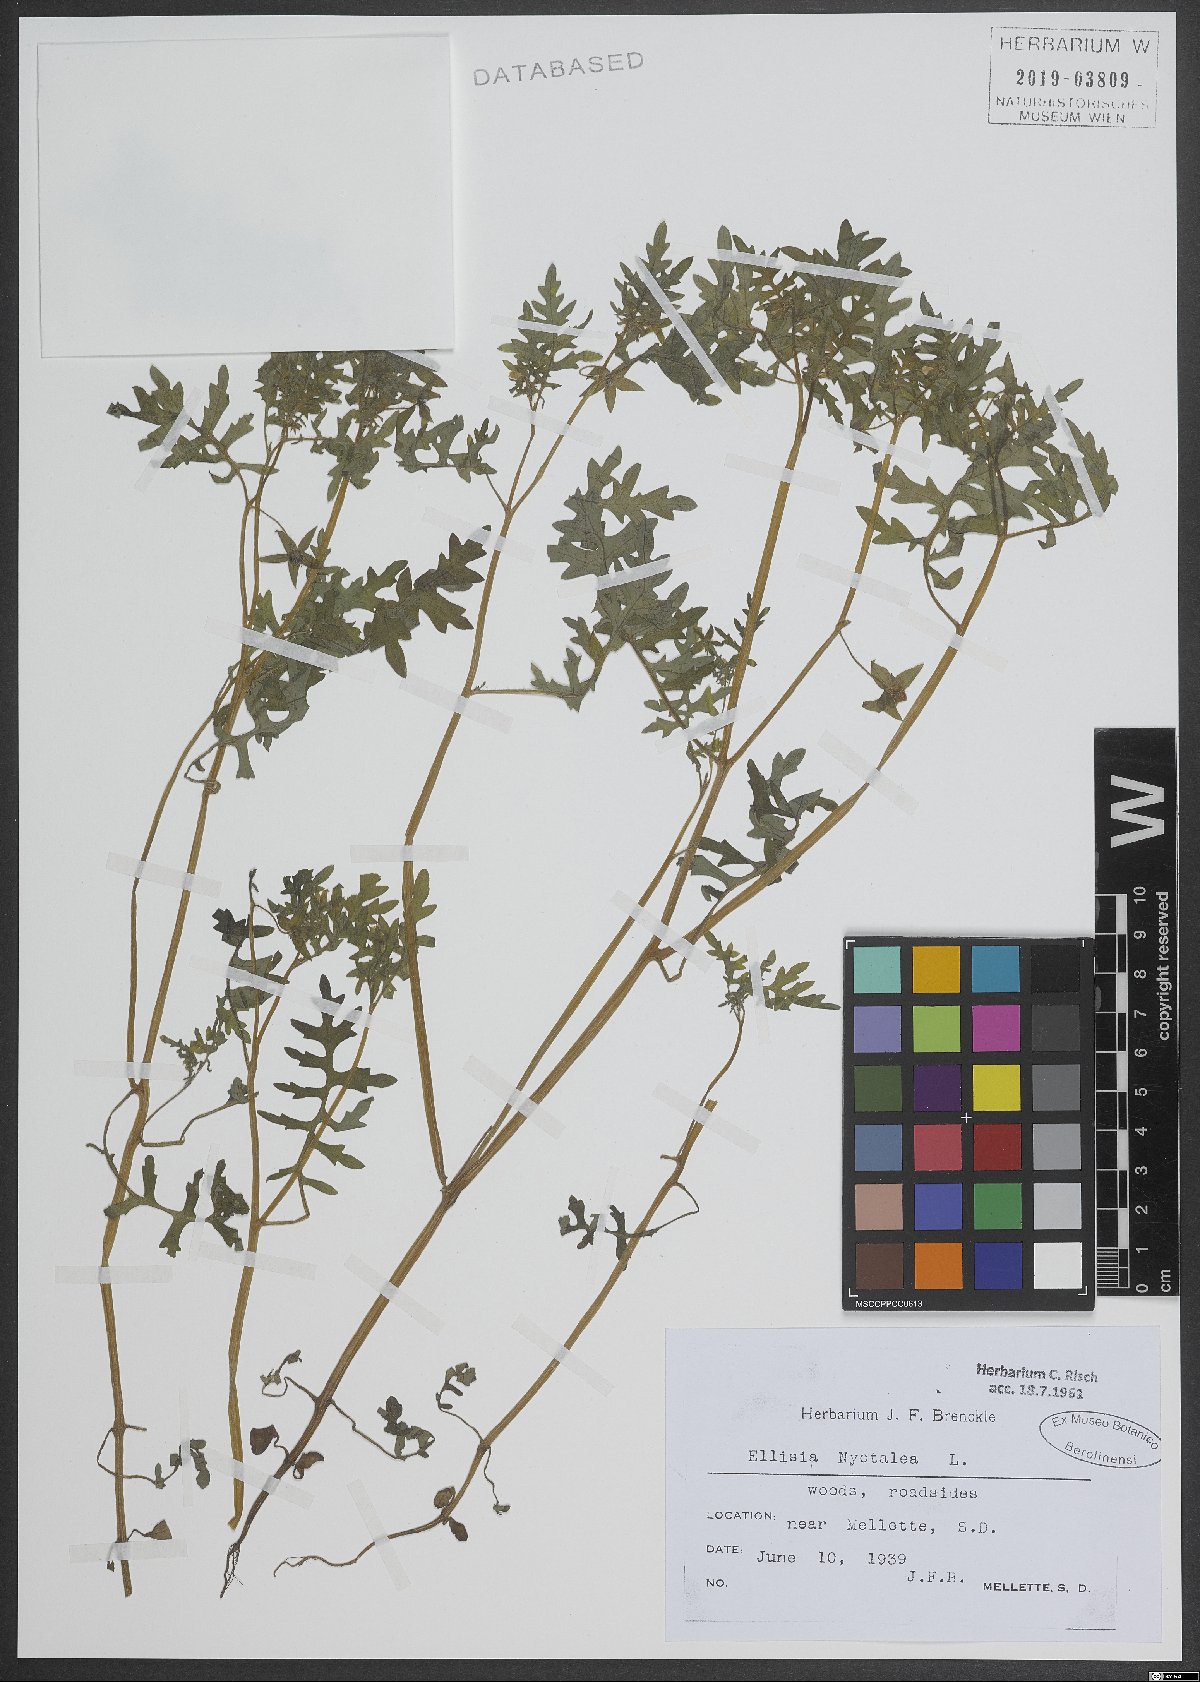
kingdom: Plantae
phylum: Tracheophyta
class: Magnoliopsida
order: Boraginales
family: Hydrophyllaceae
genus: Ellisia
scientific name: Ellisia nyctelea
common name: Aunt lucy
